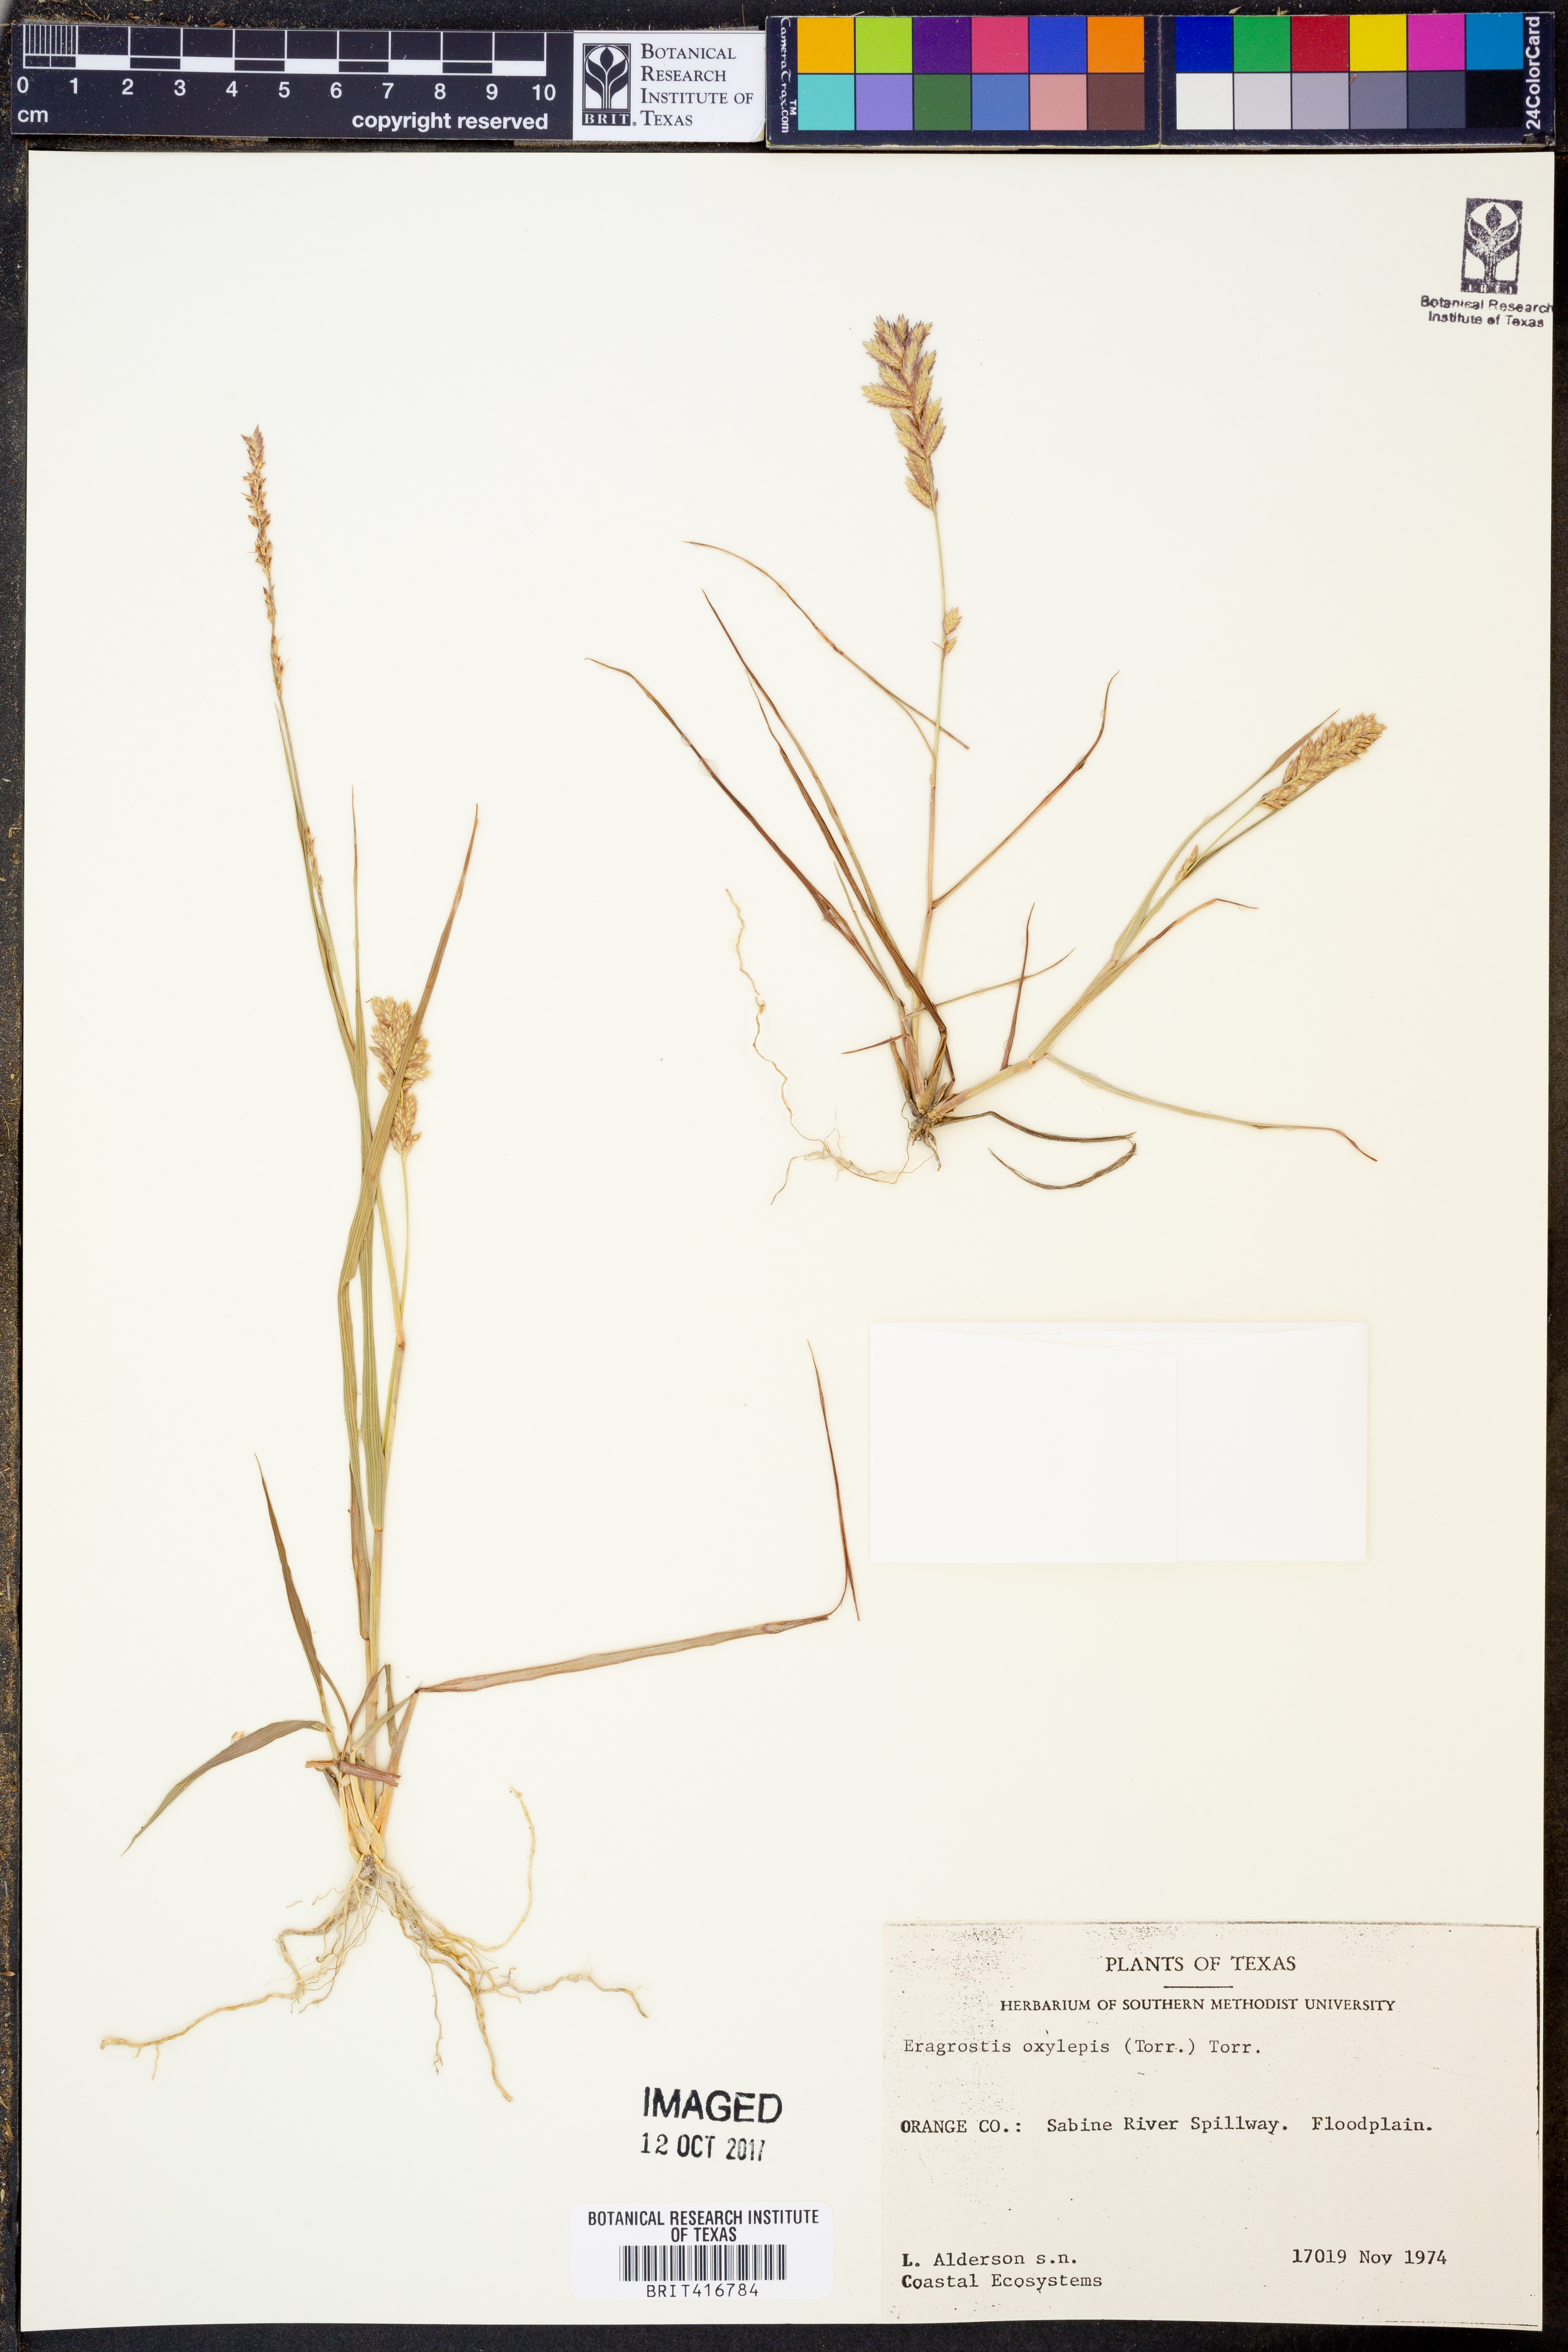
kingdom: Plantae
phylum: Tracheophyta
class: Liliopsida
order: Poales
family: Poaceae
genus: Eragrostis
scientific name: Eragrostis secundiflora
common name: Red love grass
